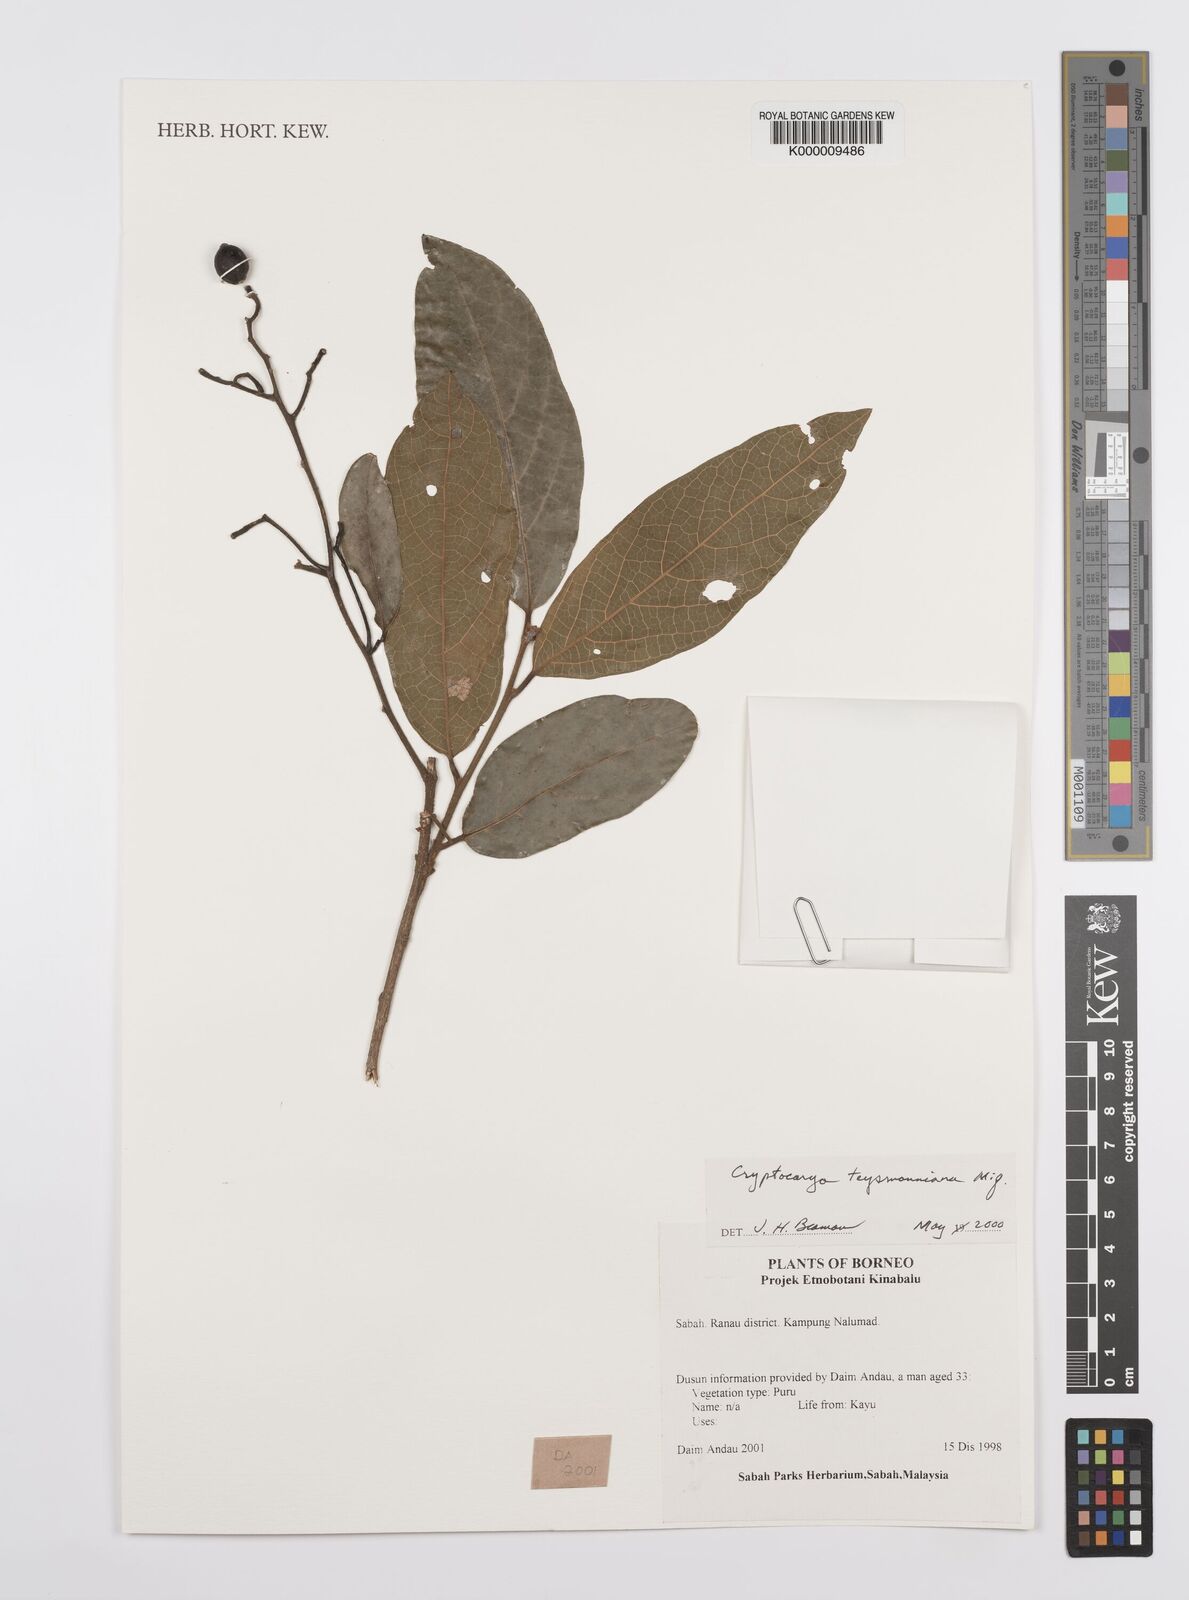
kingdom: Plantae
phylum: Tracheophyta
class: Magnoliopsida
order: Laurales
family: Lauraceae
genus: Cryptocarya
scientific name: Cryptocarya teysmanniana
